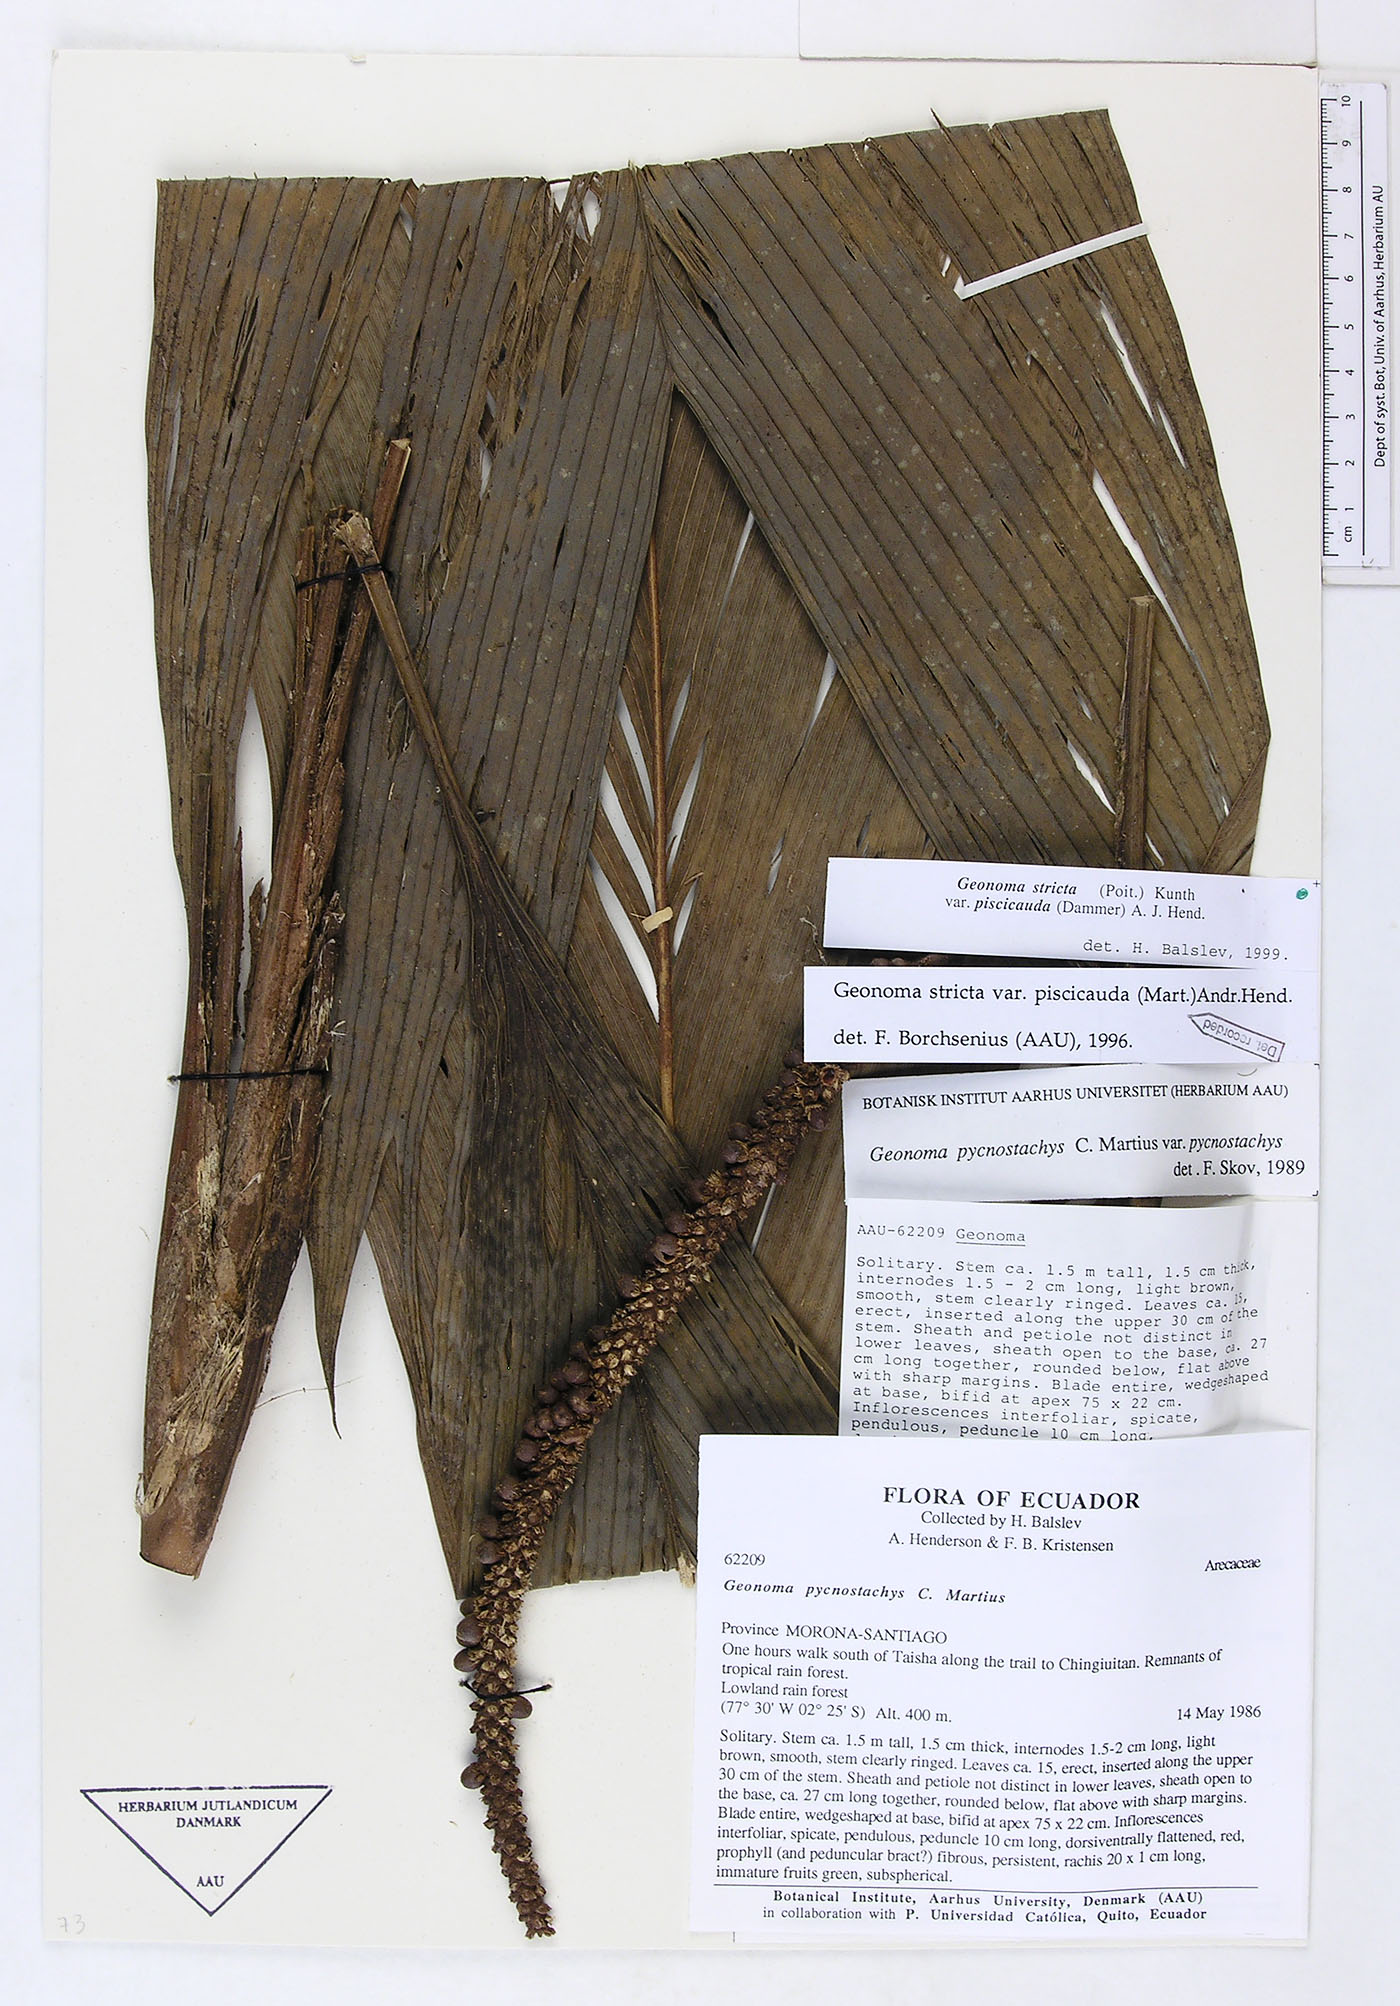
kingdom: Plantae
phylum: Tracheophyta
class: Liliopsida
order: Arecales
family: Arecaceae
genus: Geonoma
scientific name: Geonoma stricta
